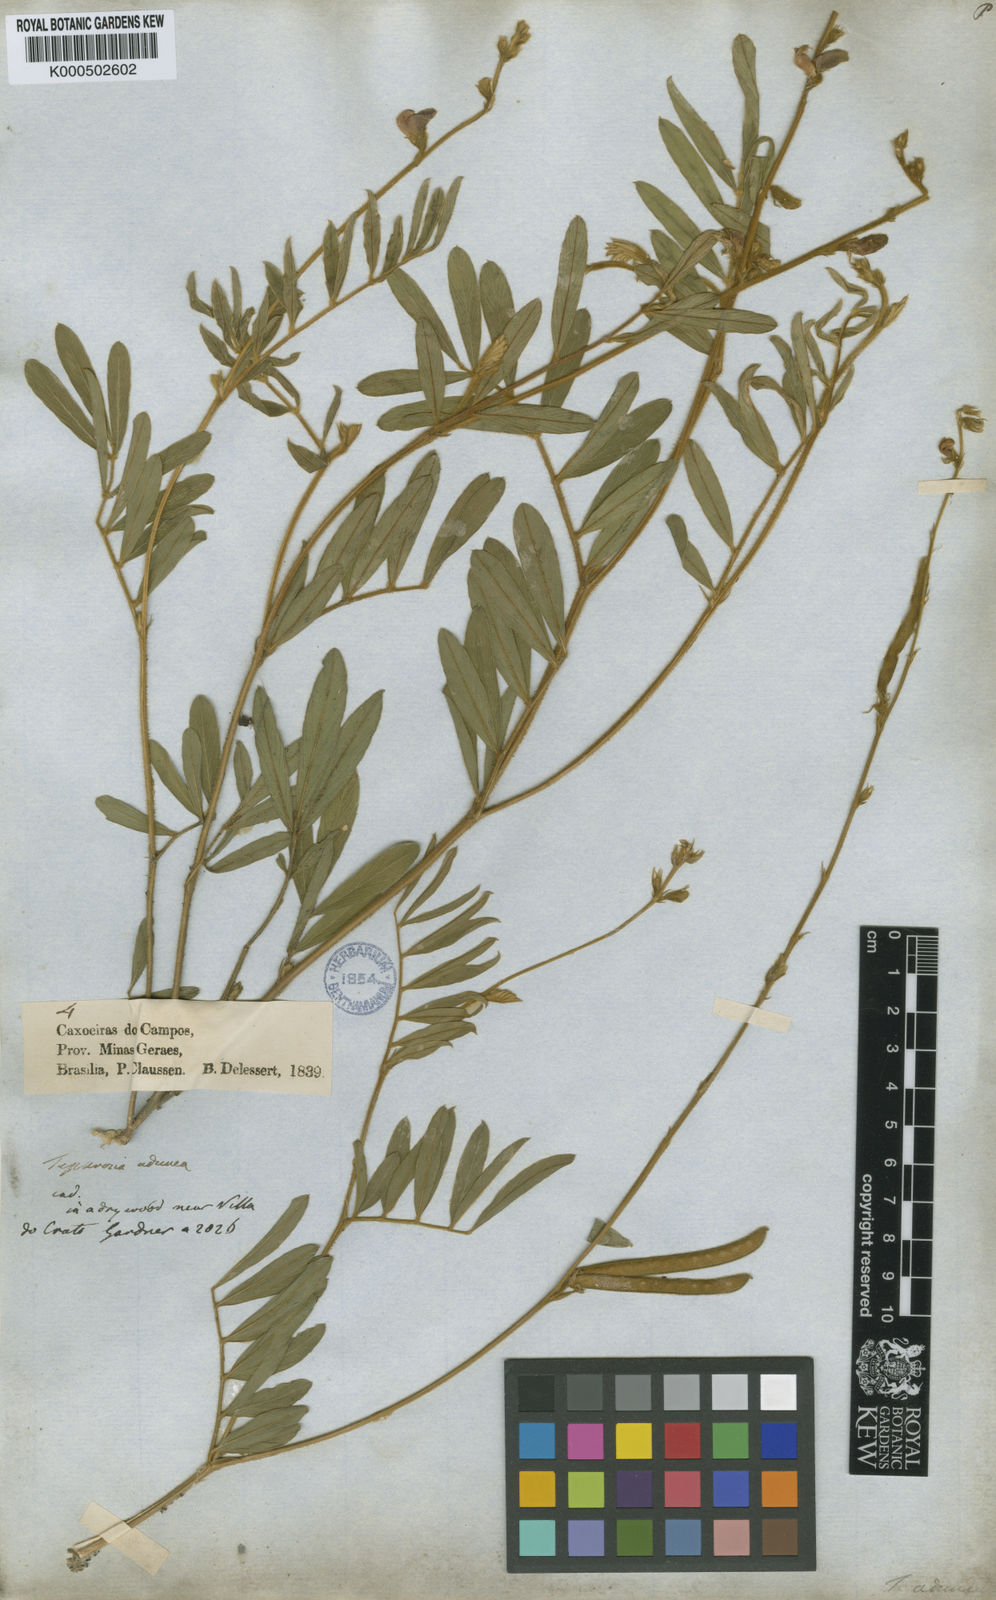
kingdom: Plantae
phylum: Tracheophyta
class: Magnoliopsida
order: Fabales
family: Fabaceae
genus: Tephrosia
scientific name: Tephrosia adunca
